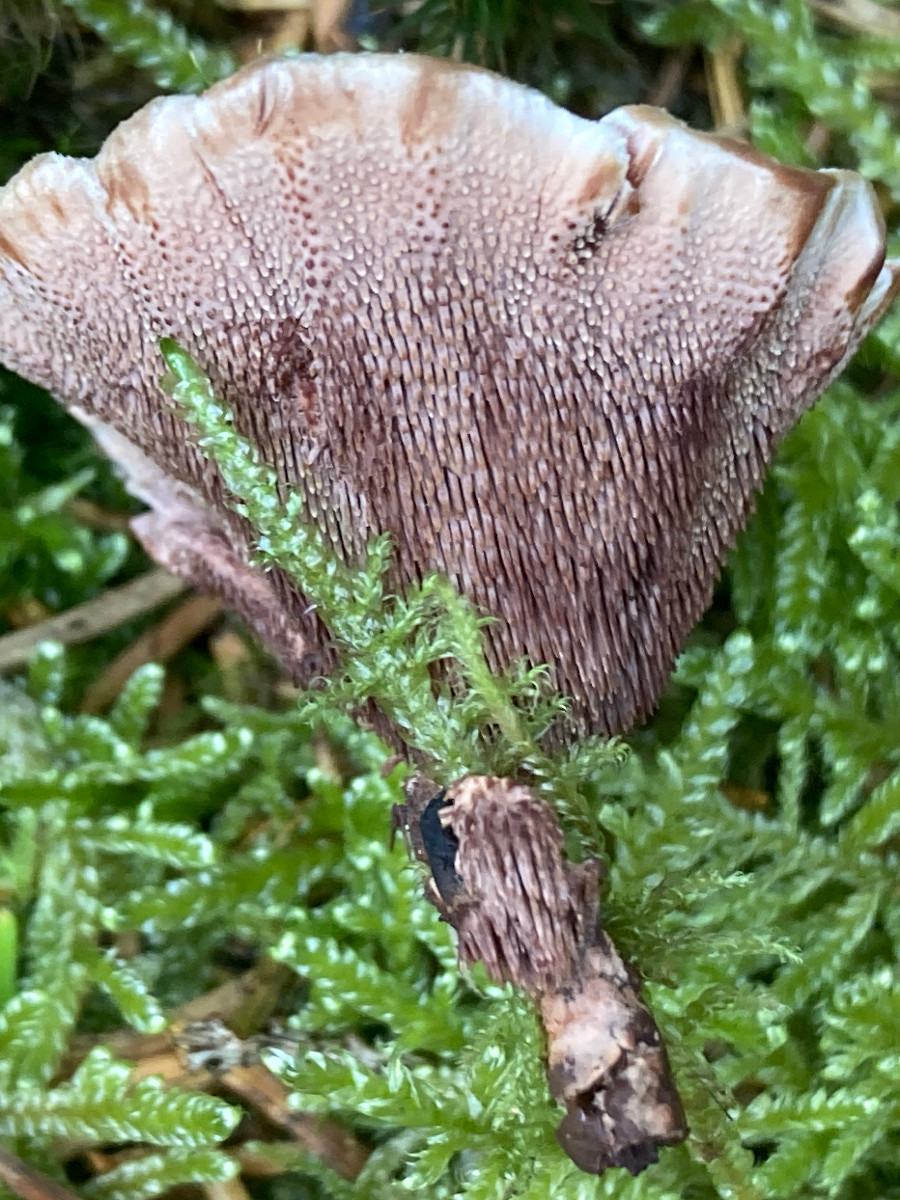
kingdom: Fungi
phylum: Basidiomycota
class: Agaricomycetes
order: Thelephorales
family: Bankeraceae
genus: Hydnellum
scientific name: Hydnellum concrescens
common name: Zoned tooth
